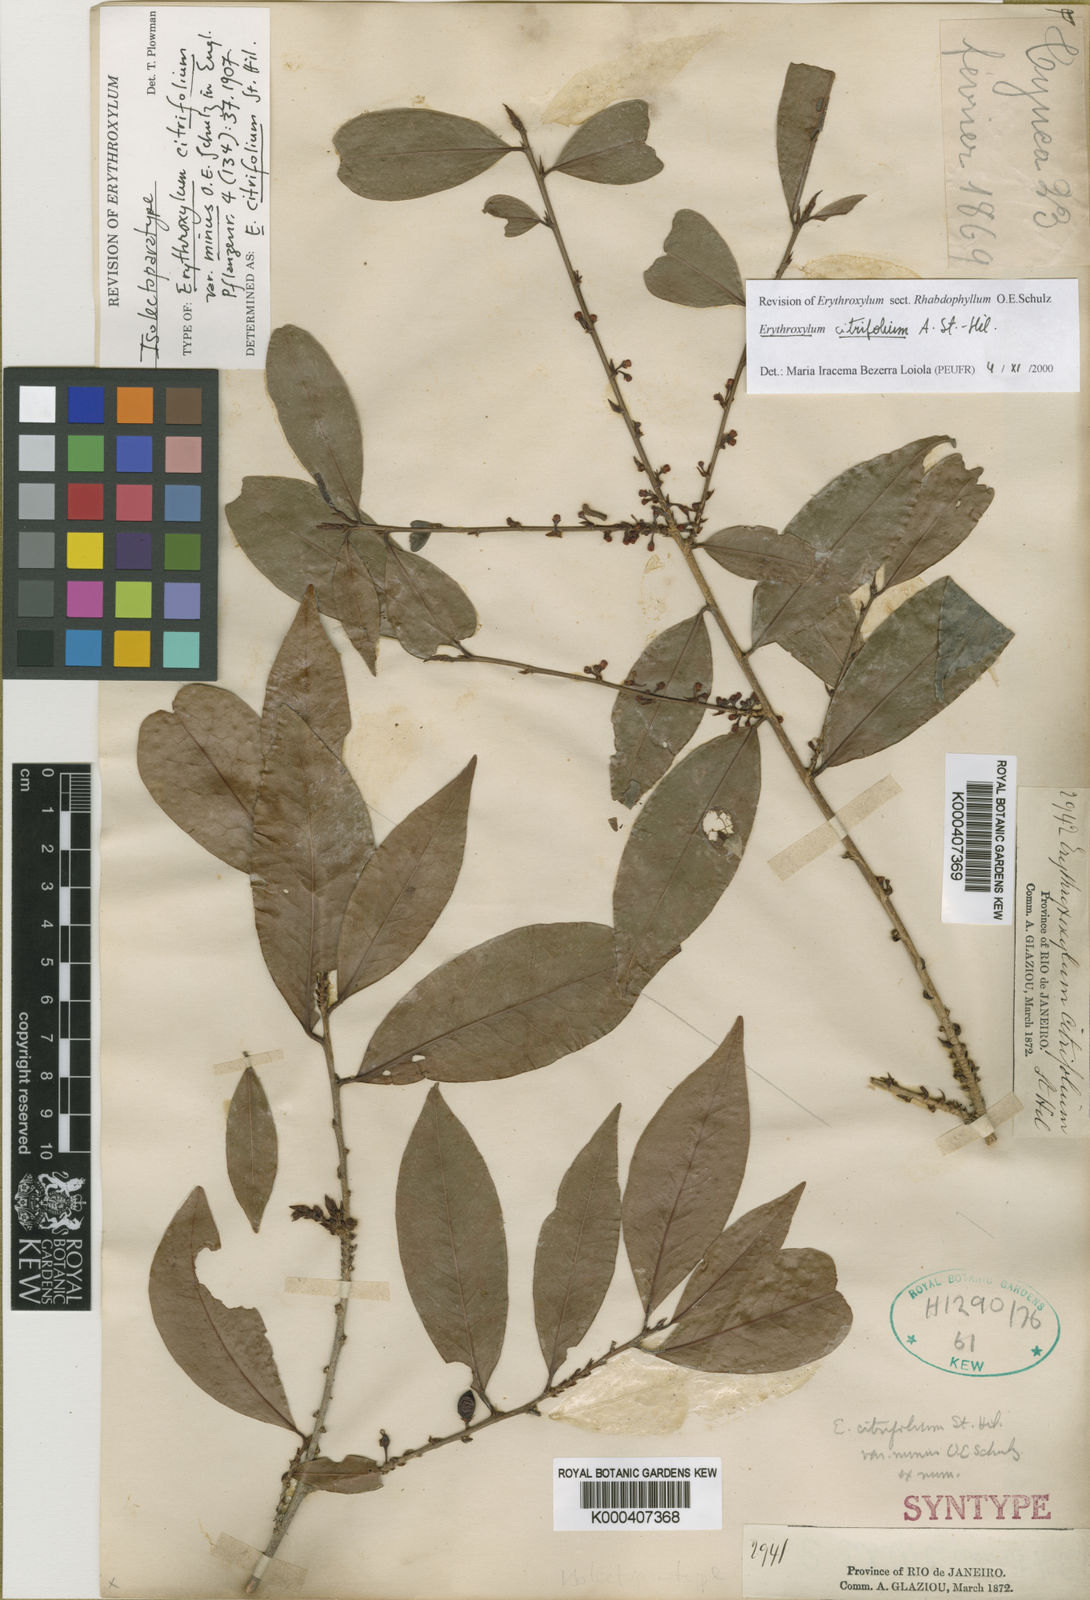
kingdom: Plantae
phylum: Tracheophyta
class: Magnoliopsida
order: Malpighiales
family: Erythroxylaceae
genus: Erythroxylum
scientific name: Erythroxylum citrifolium
